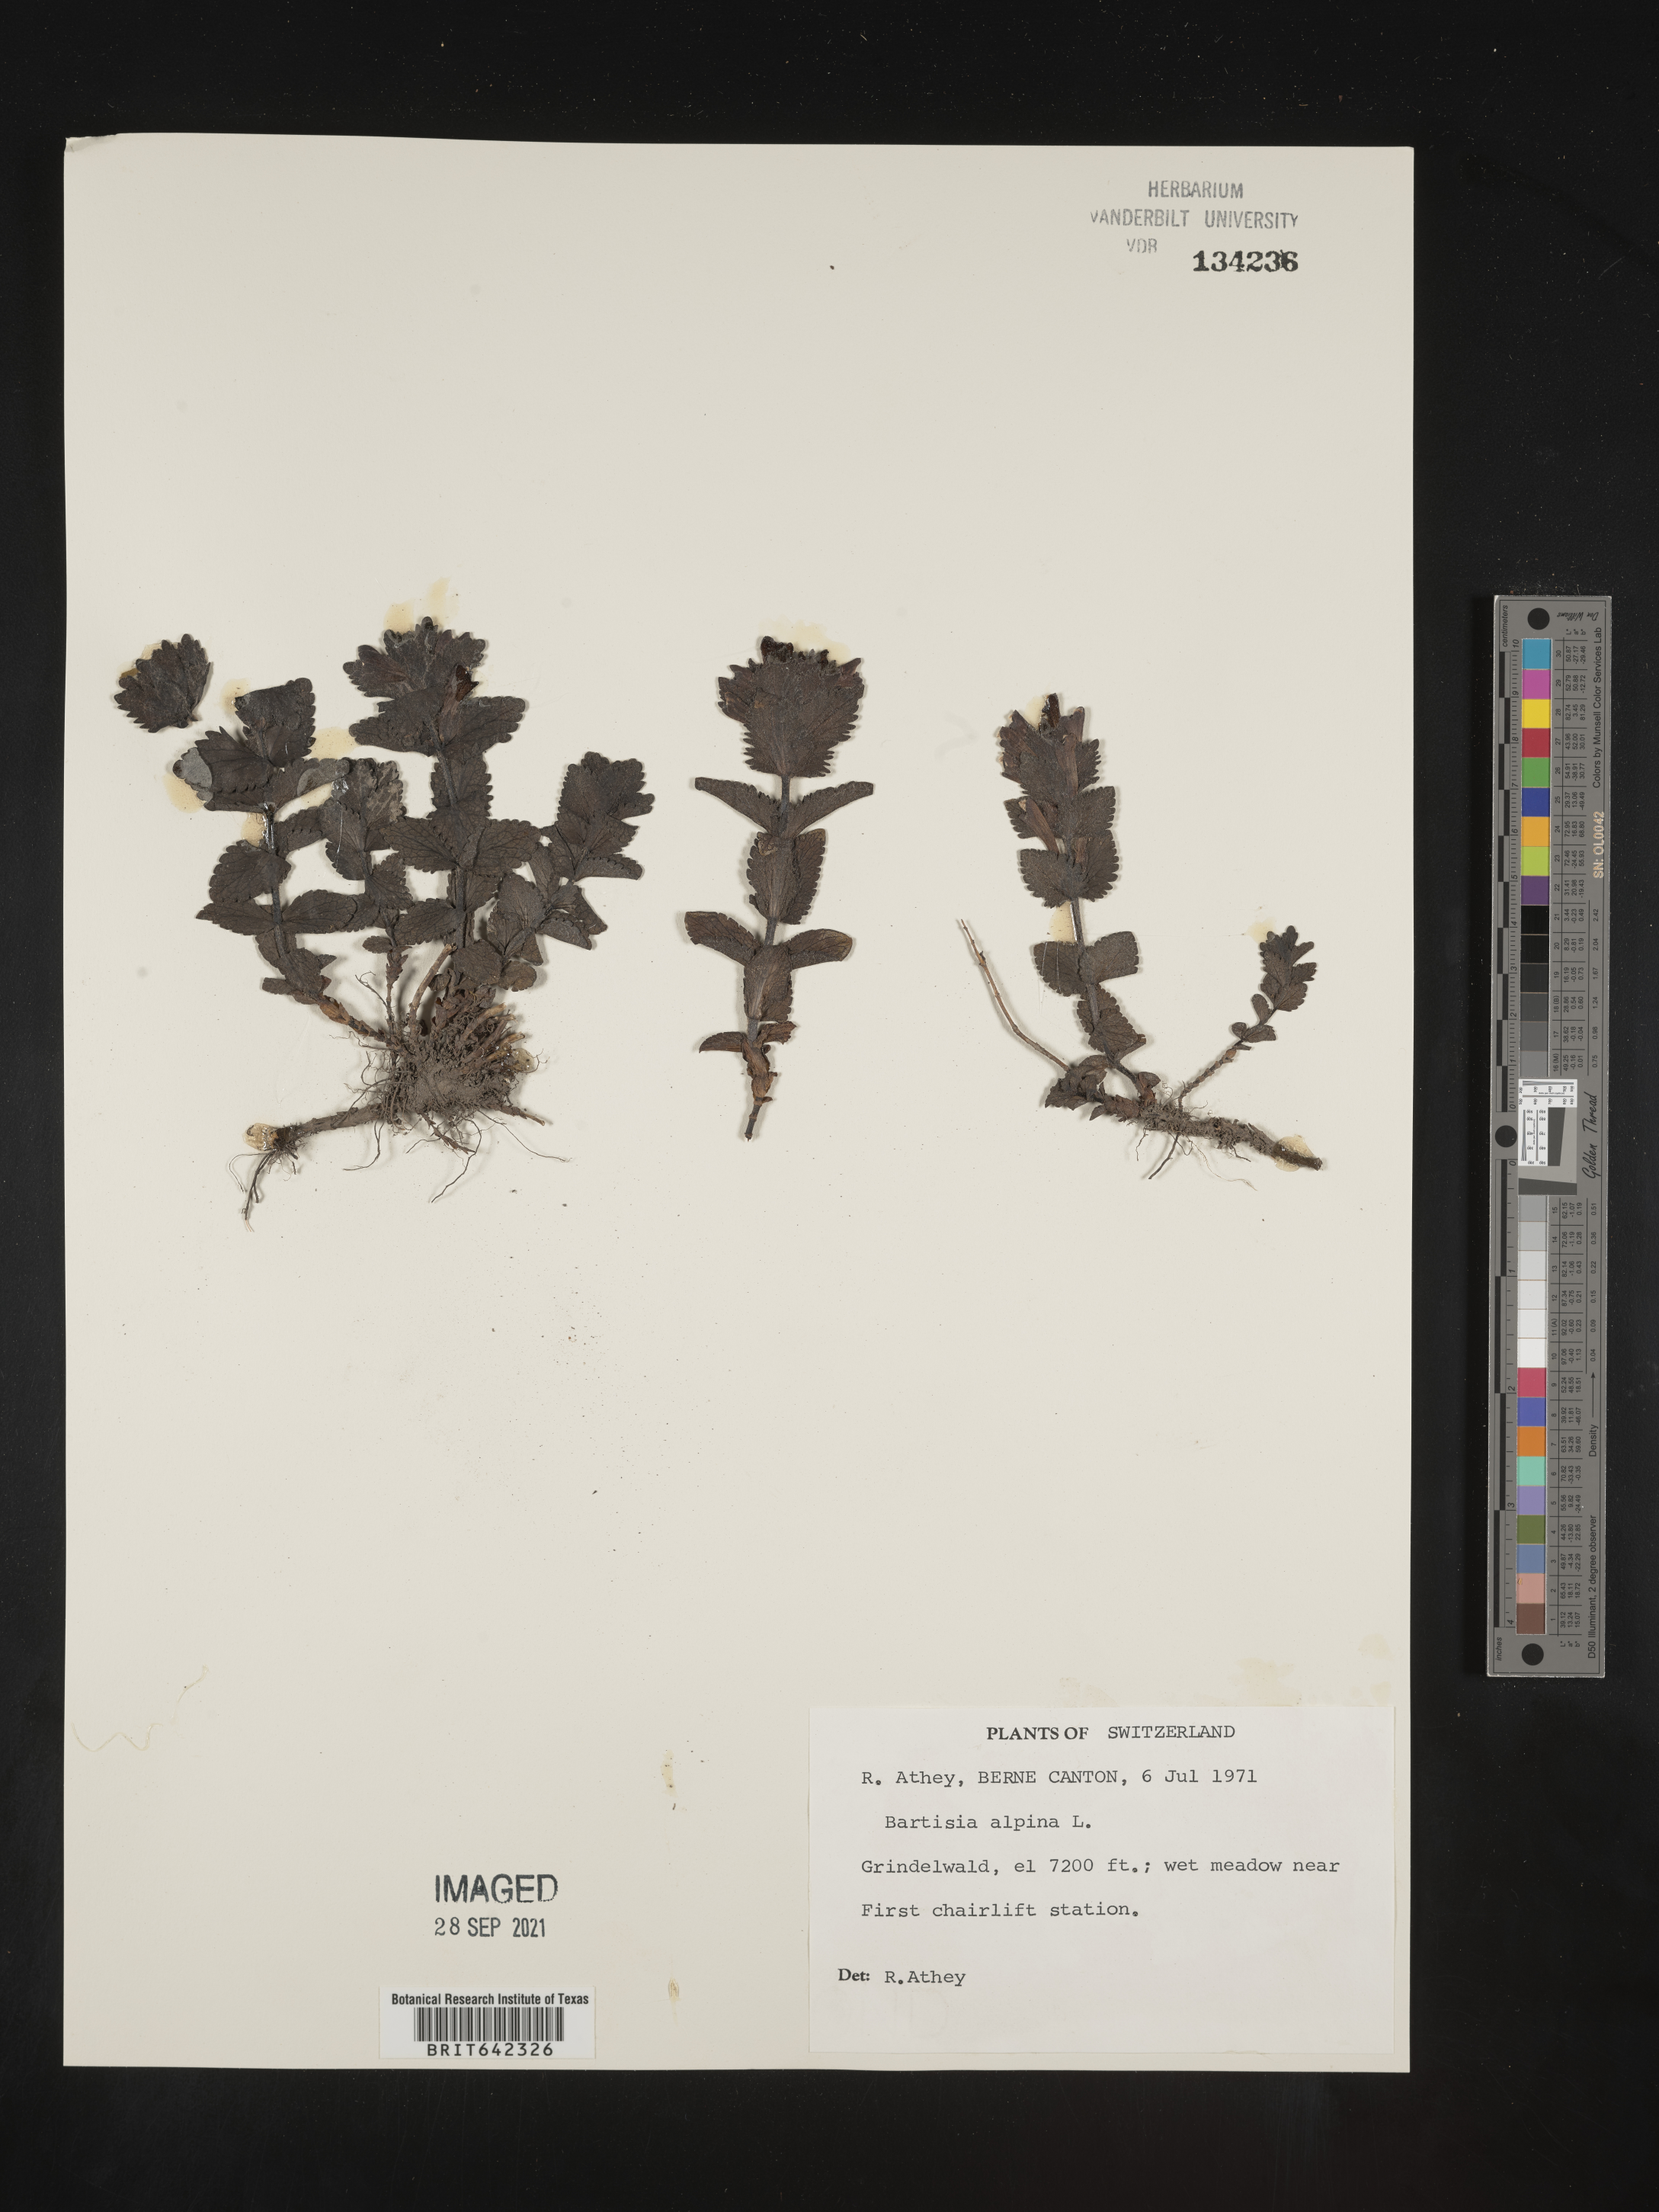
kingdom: Plantae
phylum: Tracheophyta
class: Magnoliopsida
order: Lamiales
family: Orobanchaceae
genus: Bartsia
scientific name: Bartsia
